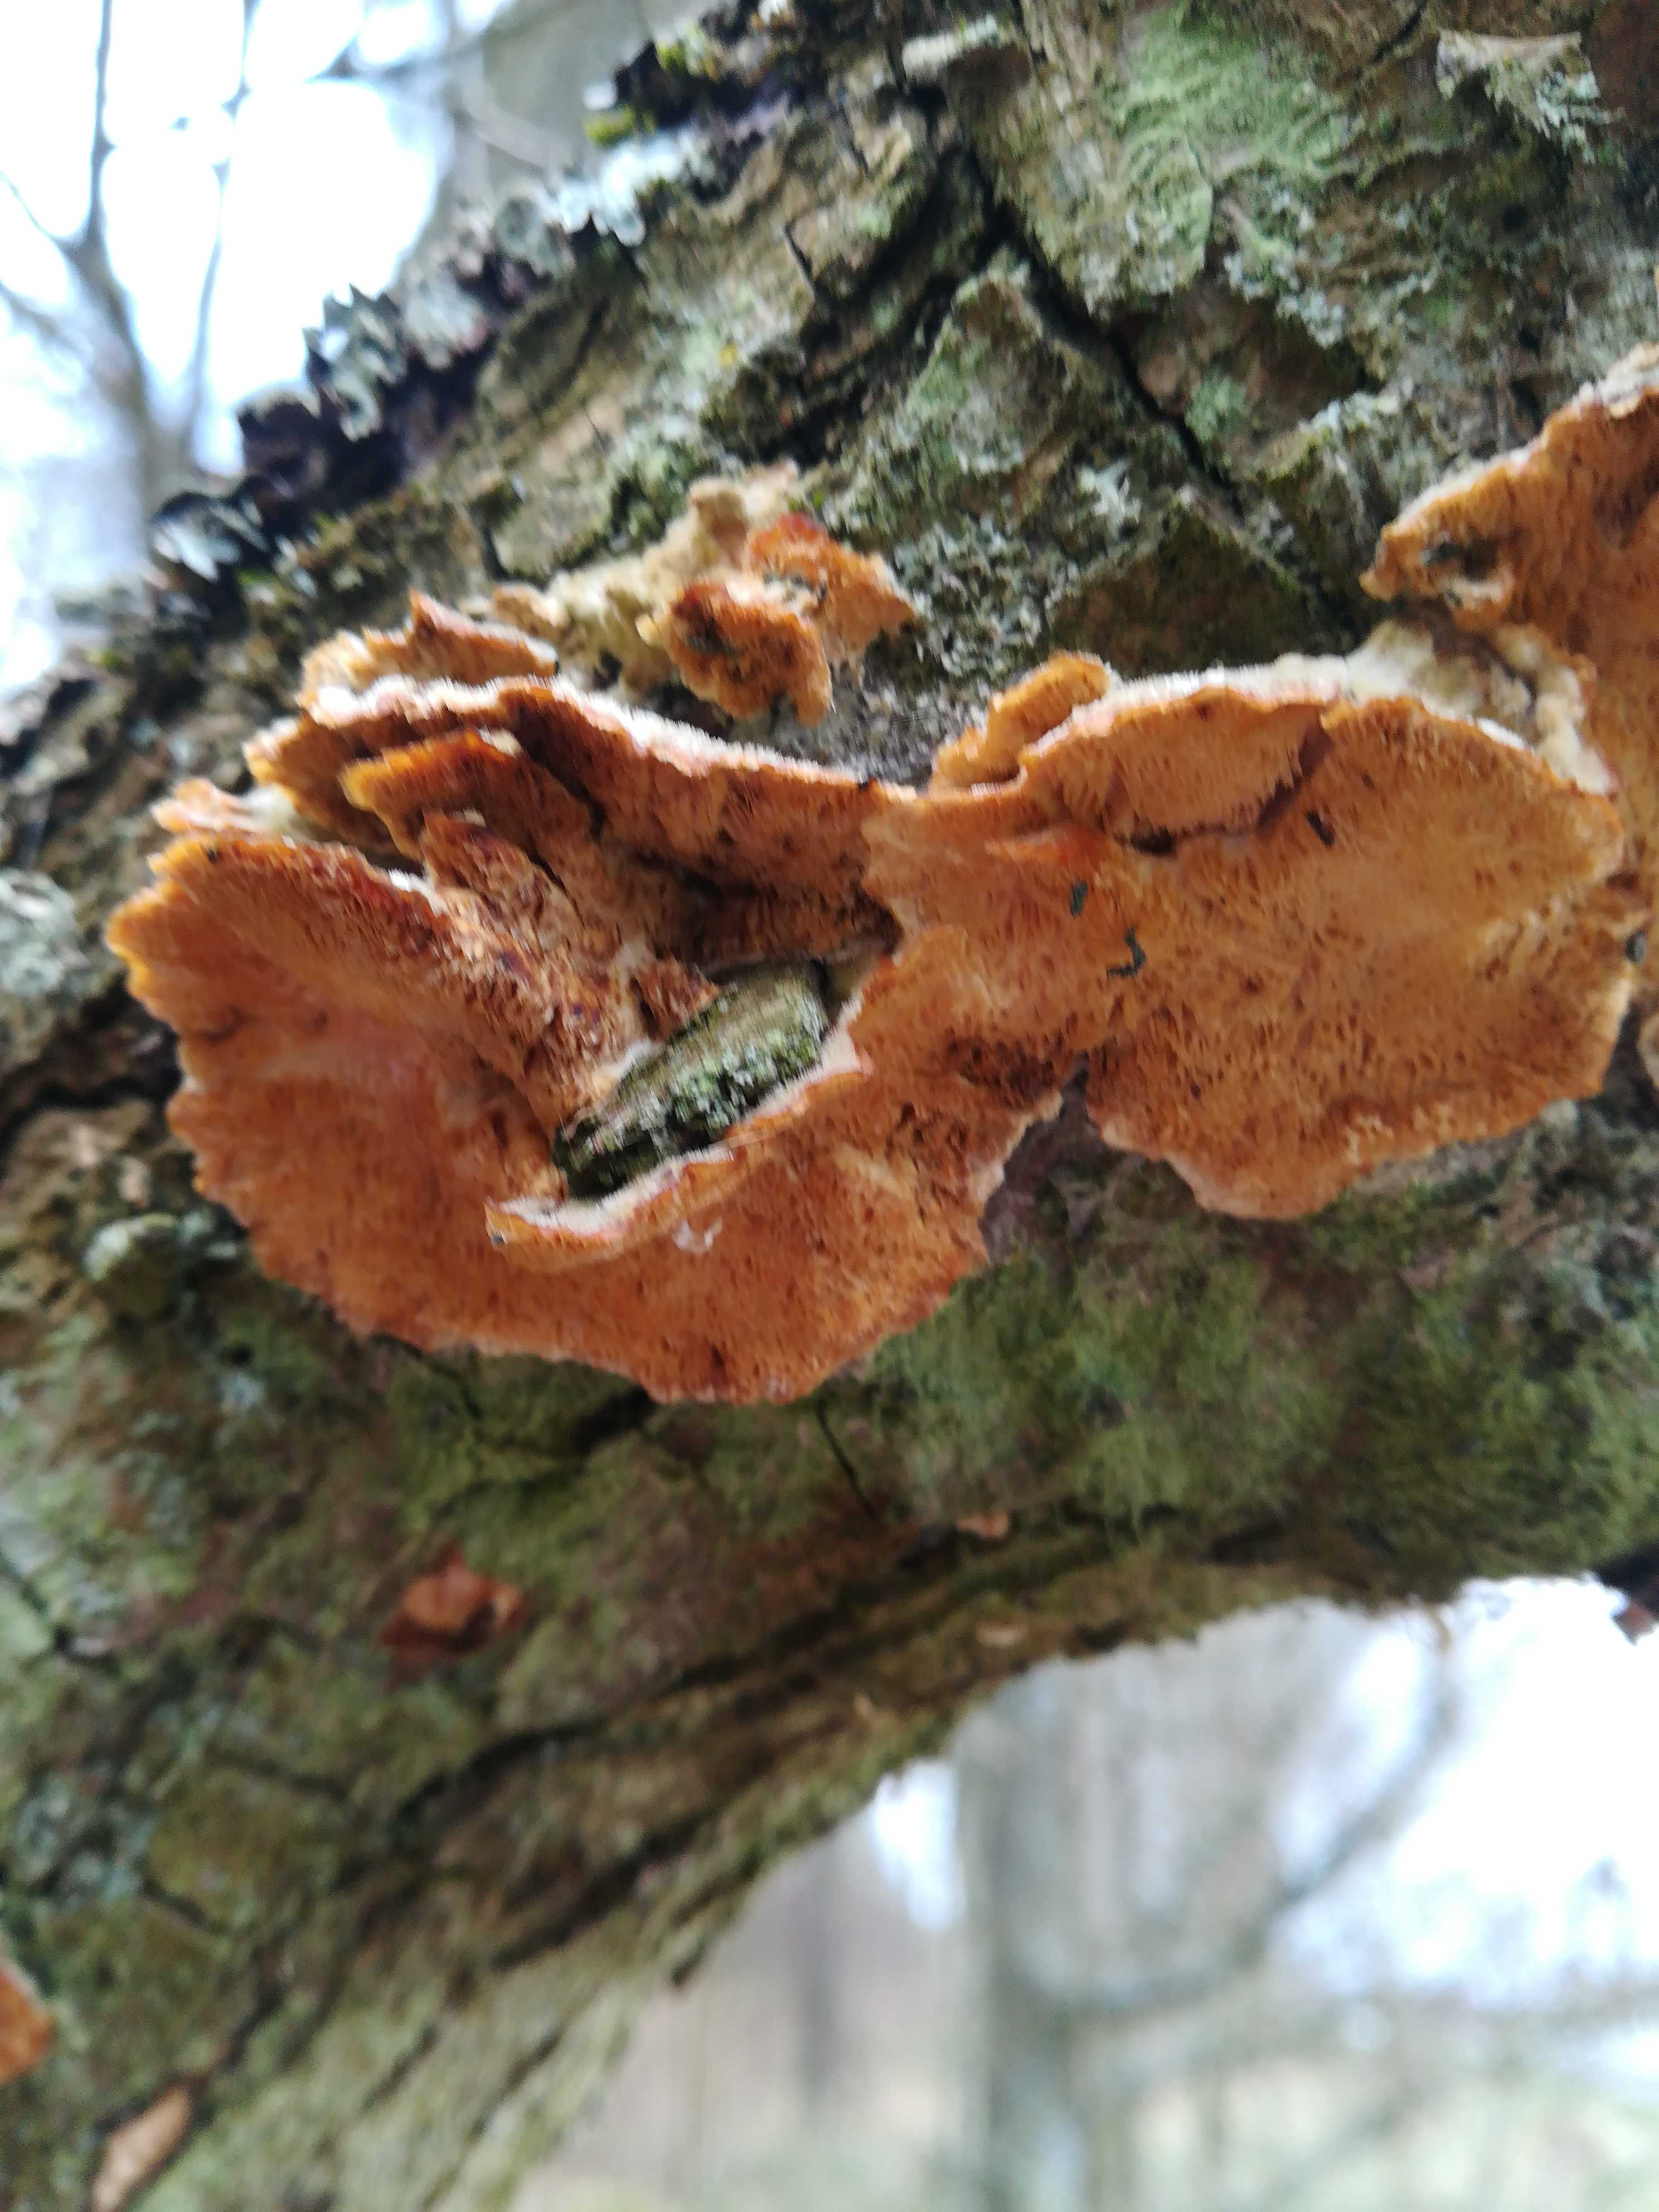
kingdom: Fungi
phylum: Basidiomycota
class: Agaricomycetes
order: Polyporales
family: Polyporaceae
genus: Trametes
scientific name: Trametes
